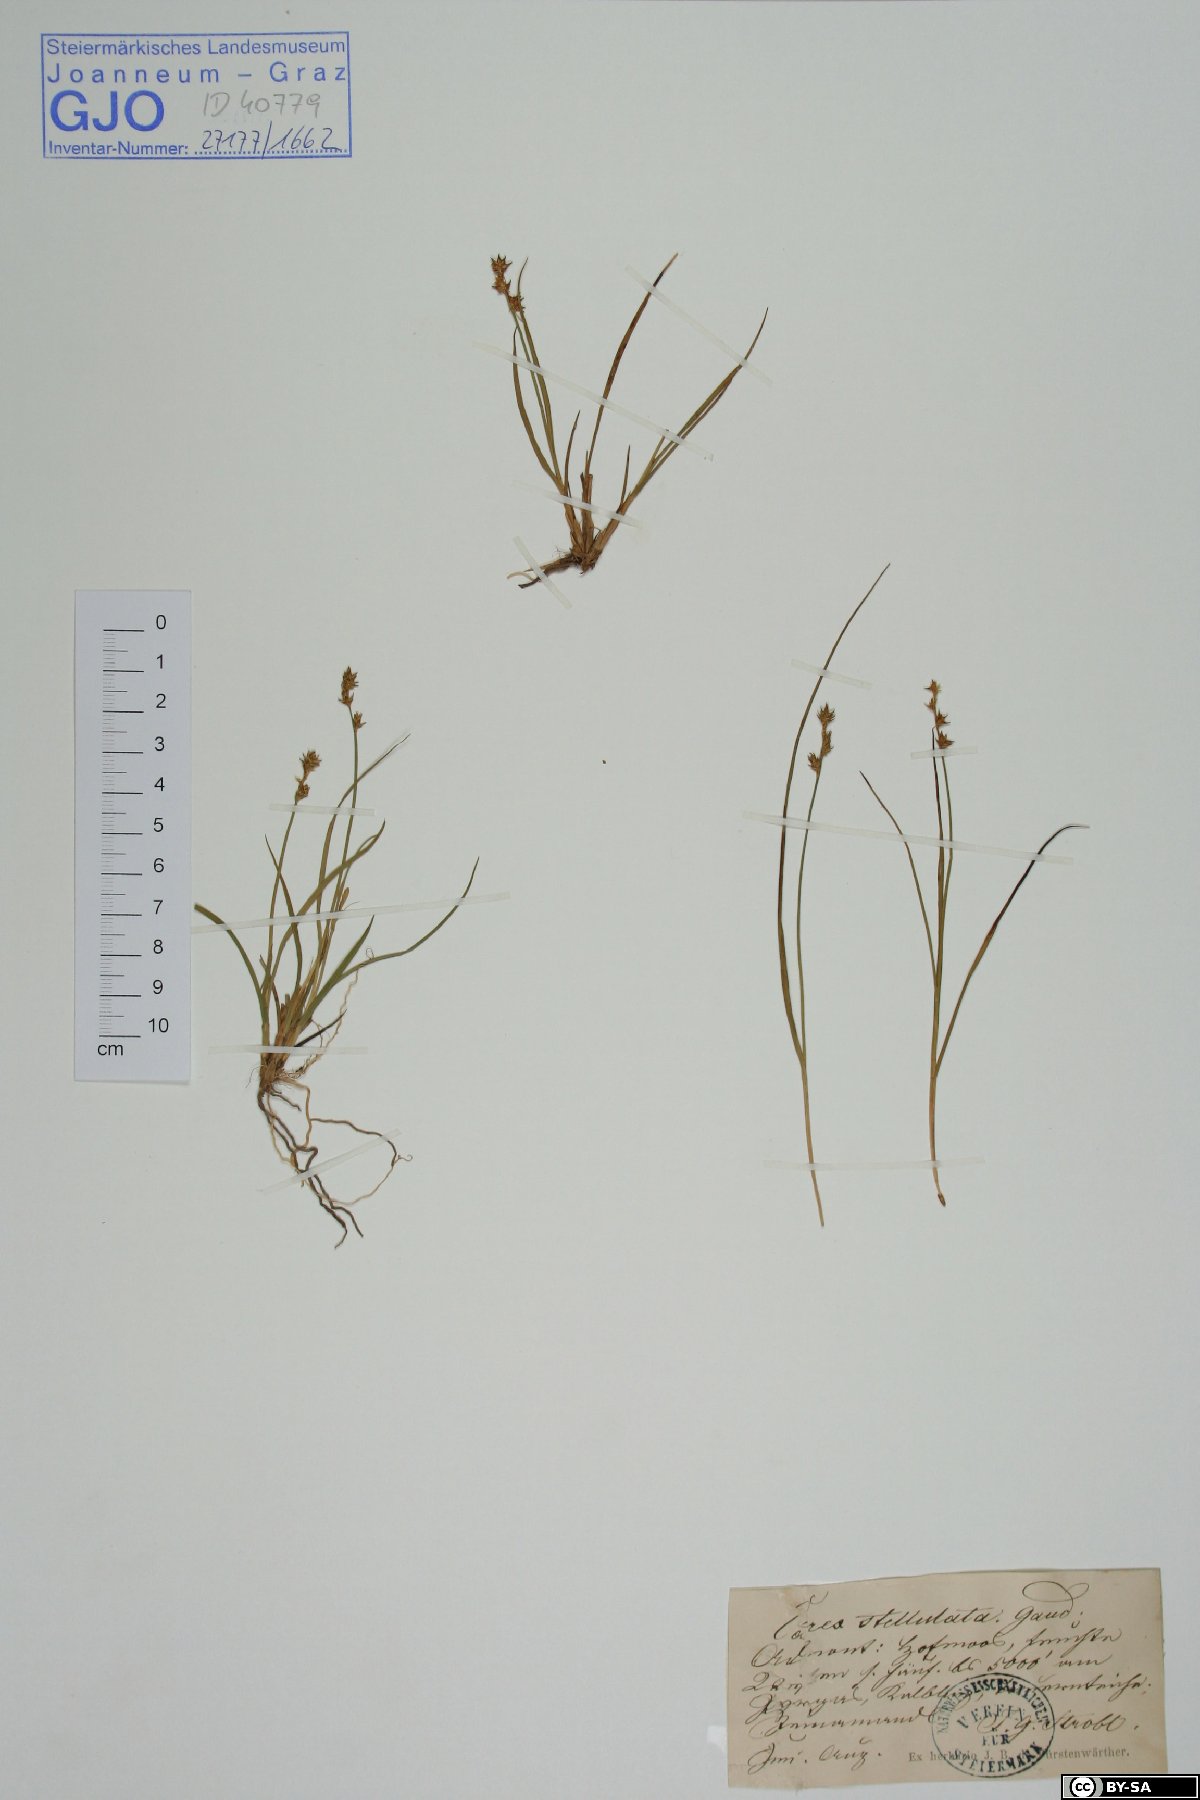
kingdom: Plantae
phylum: Tracheophyta
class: Liliopsida
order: Poales
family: Cyperaceae
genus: Carex
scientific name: Carex echinata
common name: Star sedge
